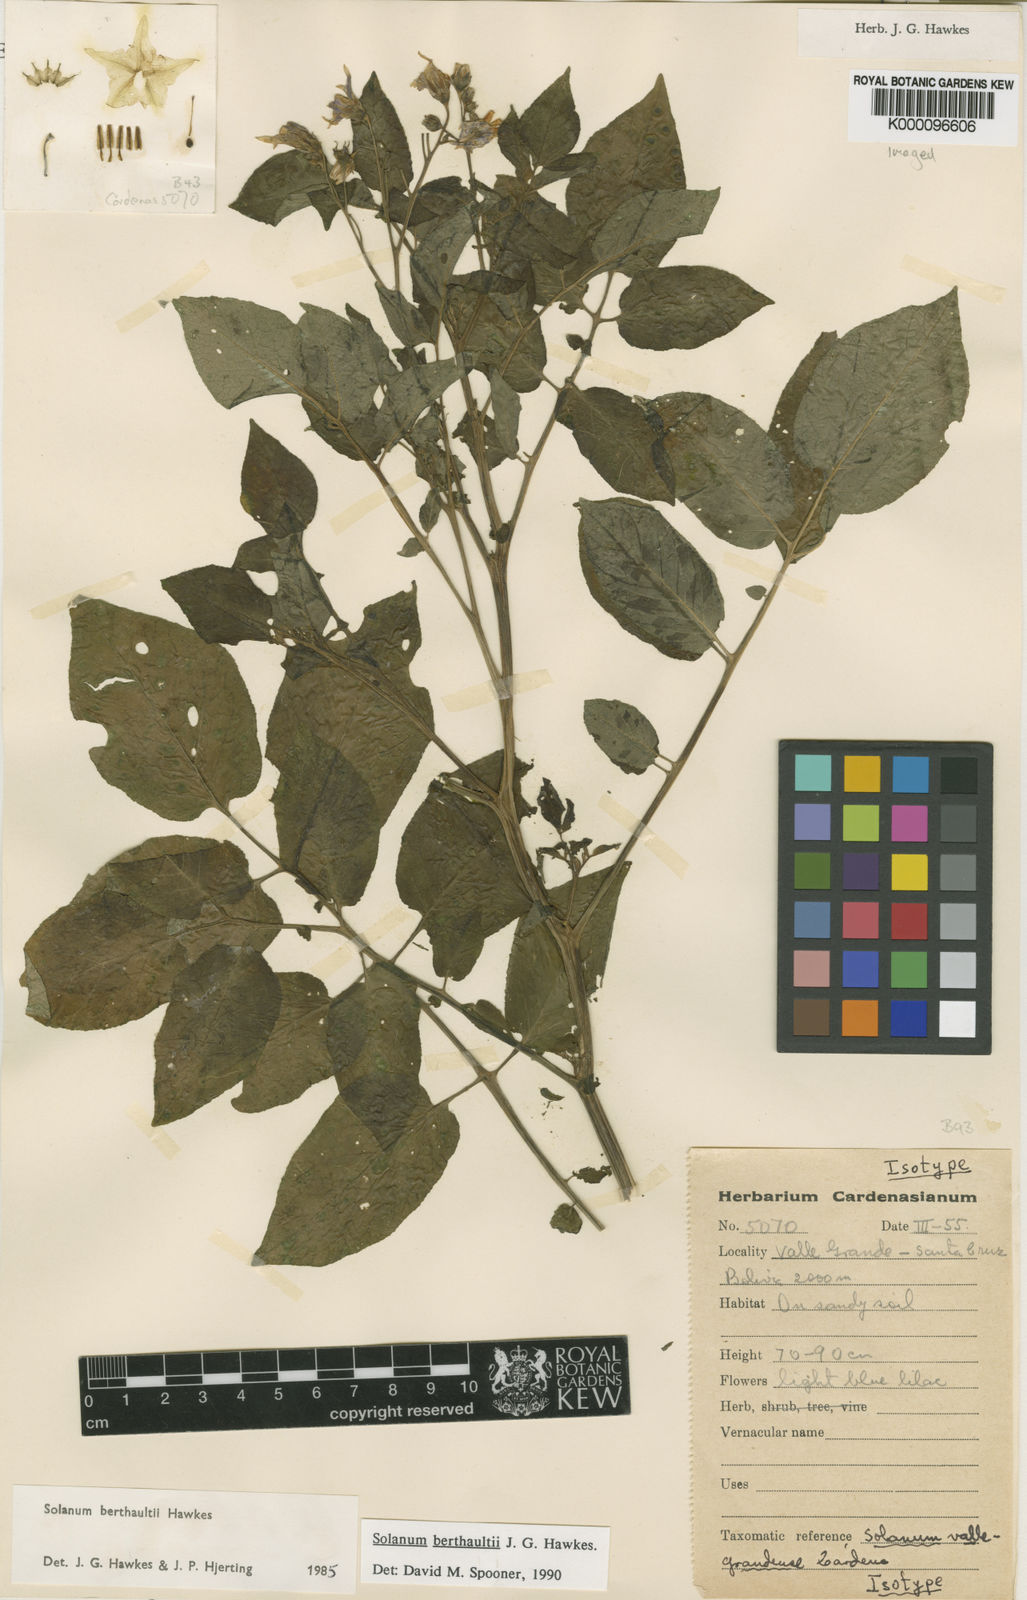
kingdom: Plantae
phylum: Tracheophyta
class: Magnoliopsida
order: Solanales
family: Solanaceae
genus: Solanum
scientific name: Solanum berthaultii
